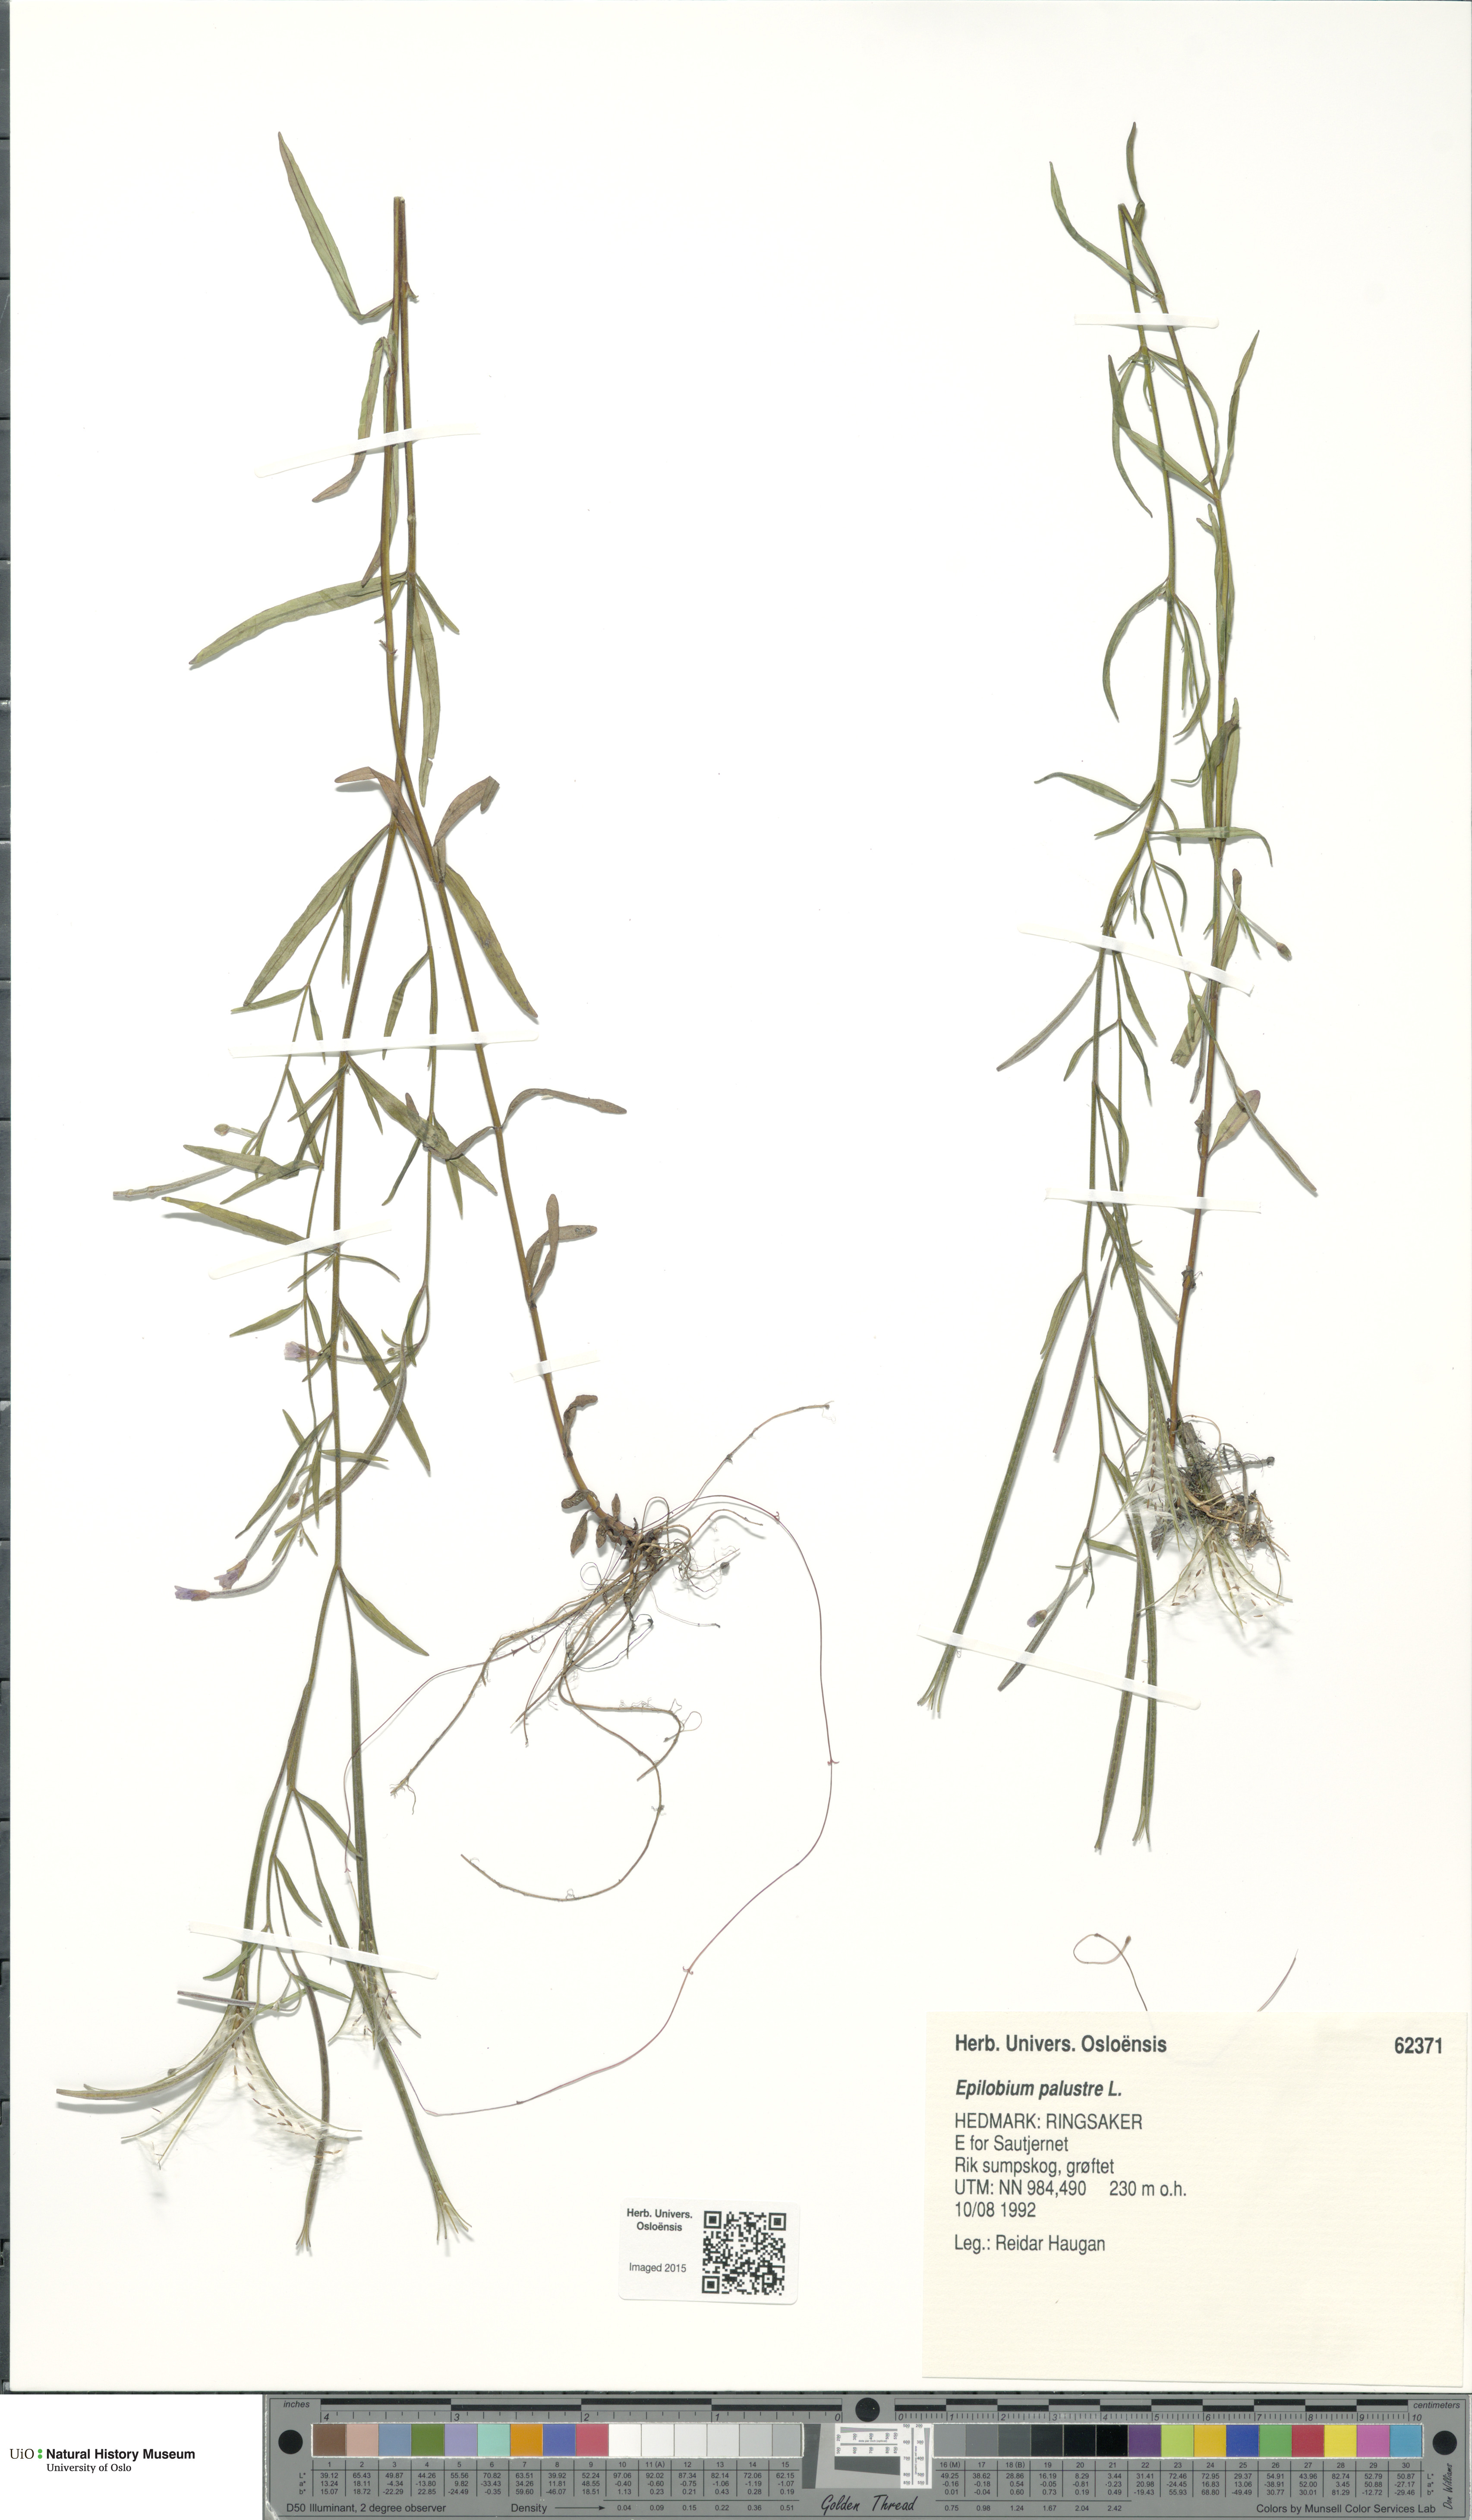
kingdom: Plantae
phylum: Tracheophyta
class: Magnoliopsida
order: Myrtales
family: Onagraceae
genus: Epilobium
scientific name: Epilobium palustre
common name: Marsh willowherb
